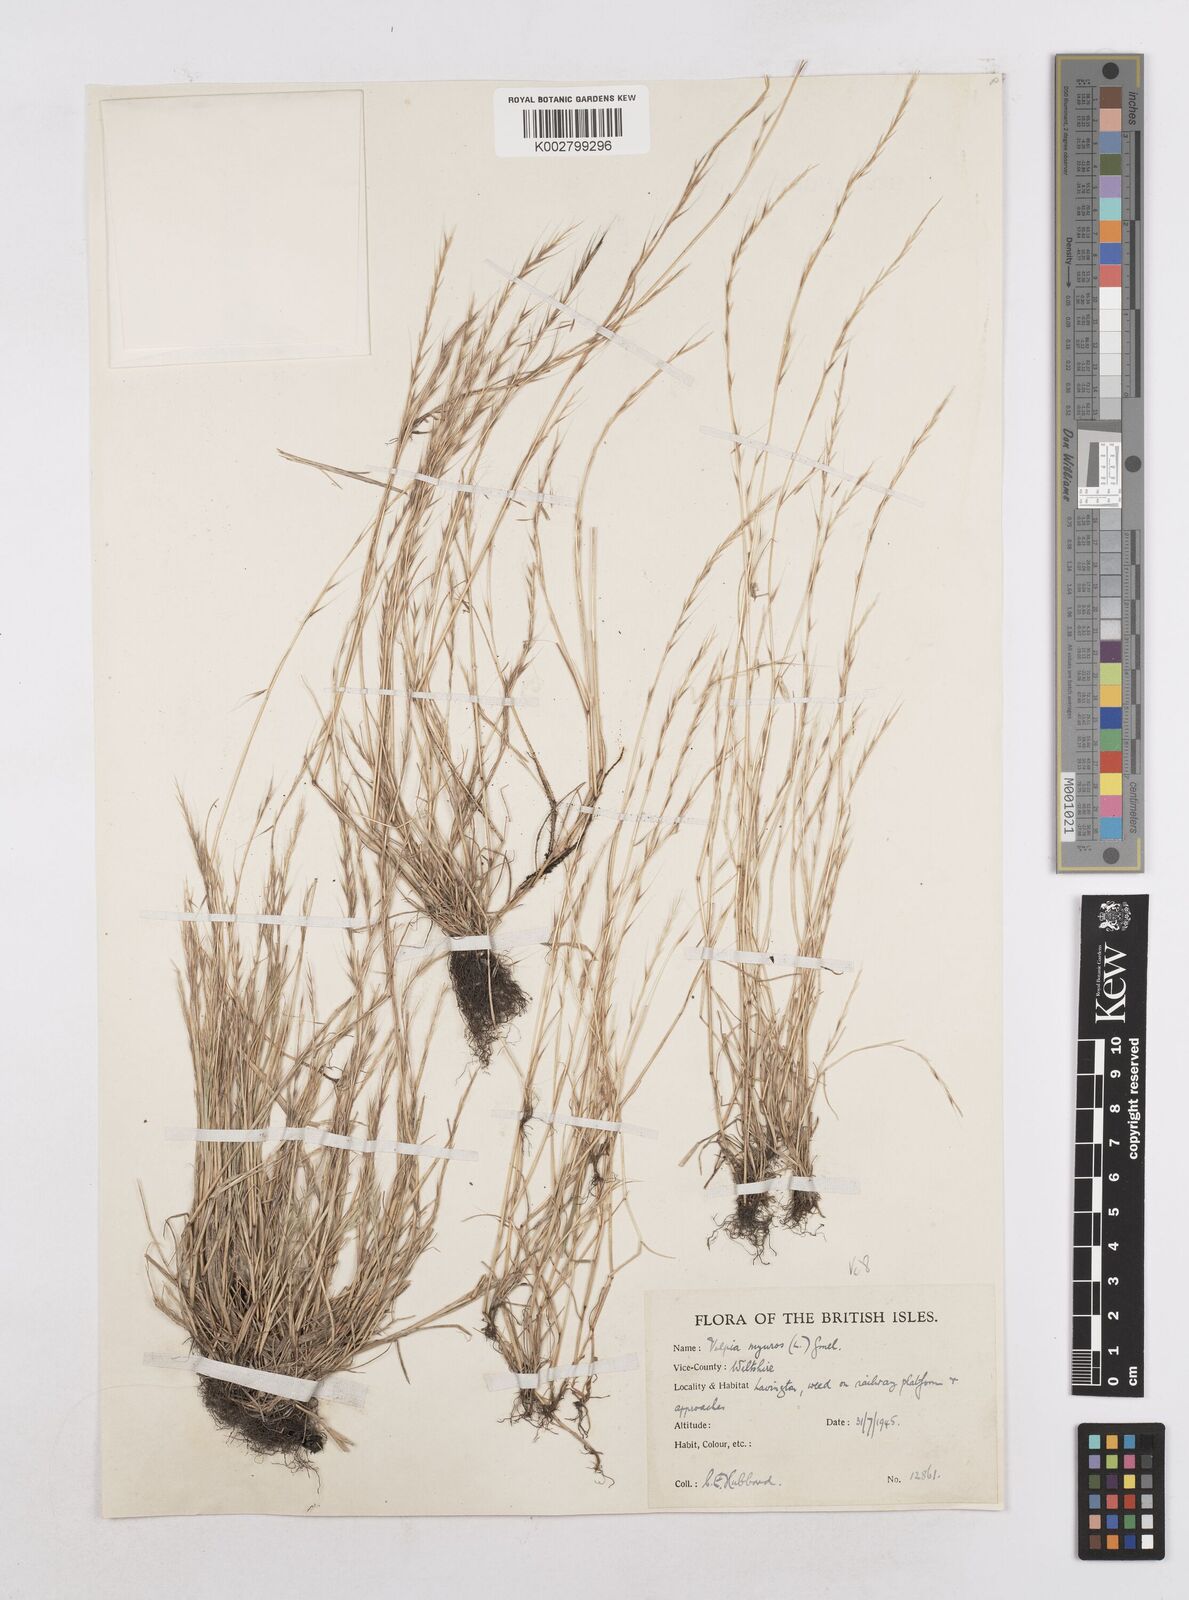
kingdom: Plantae
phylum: Tracheophyta
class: Liliopsida
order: Poales
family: Poaceae
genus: Festuca
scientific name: Festuca myuros
